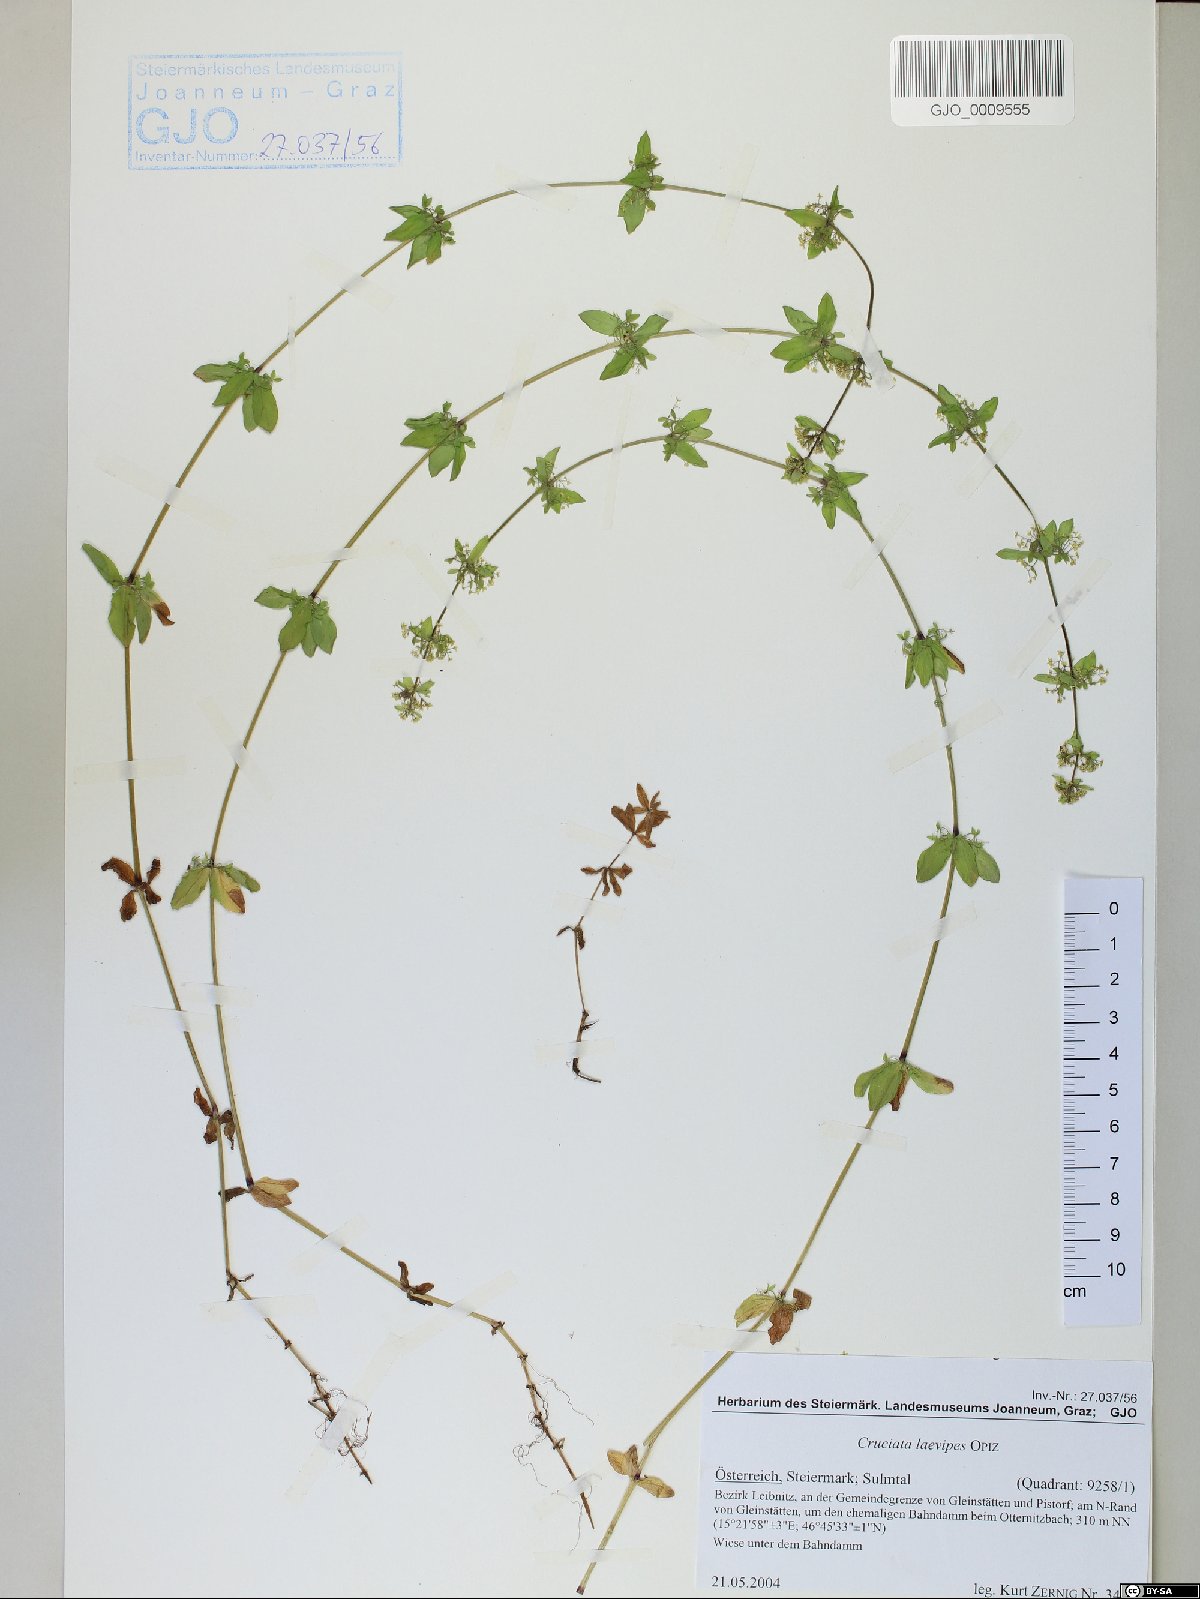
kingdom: Plantae
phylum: Tracheophyta
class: Magnoliopsida
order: Gentianales
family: Rubiaceae
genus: Cruciata
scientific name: Cruciata laevipes
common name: Crosswort
